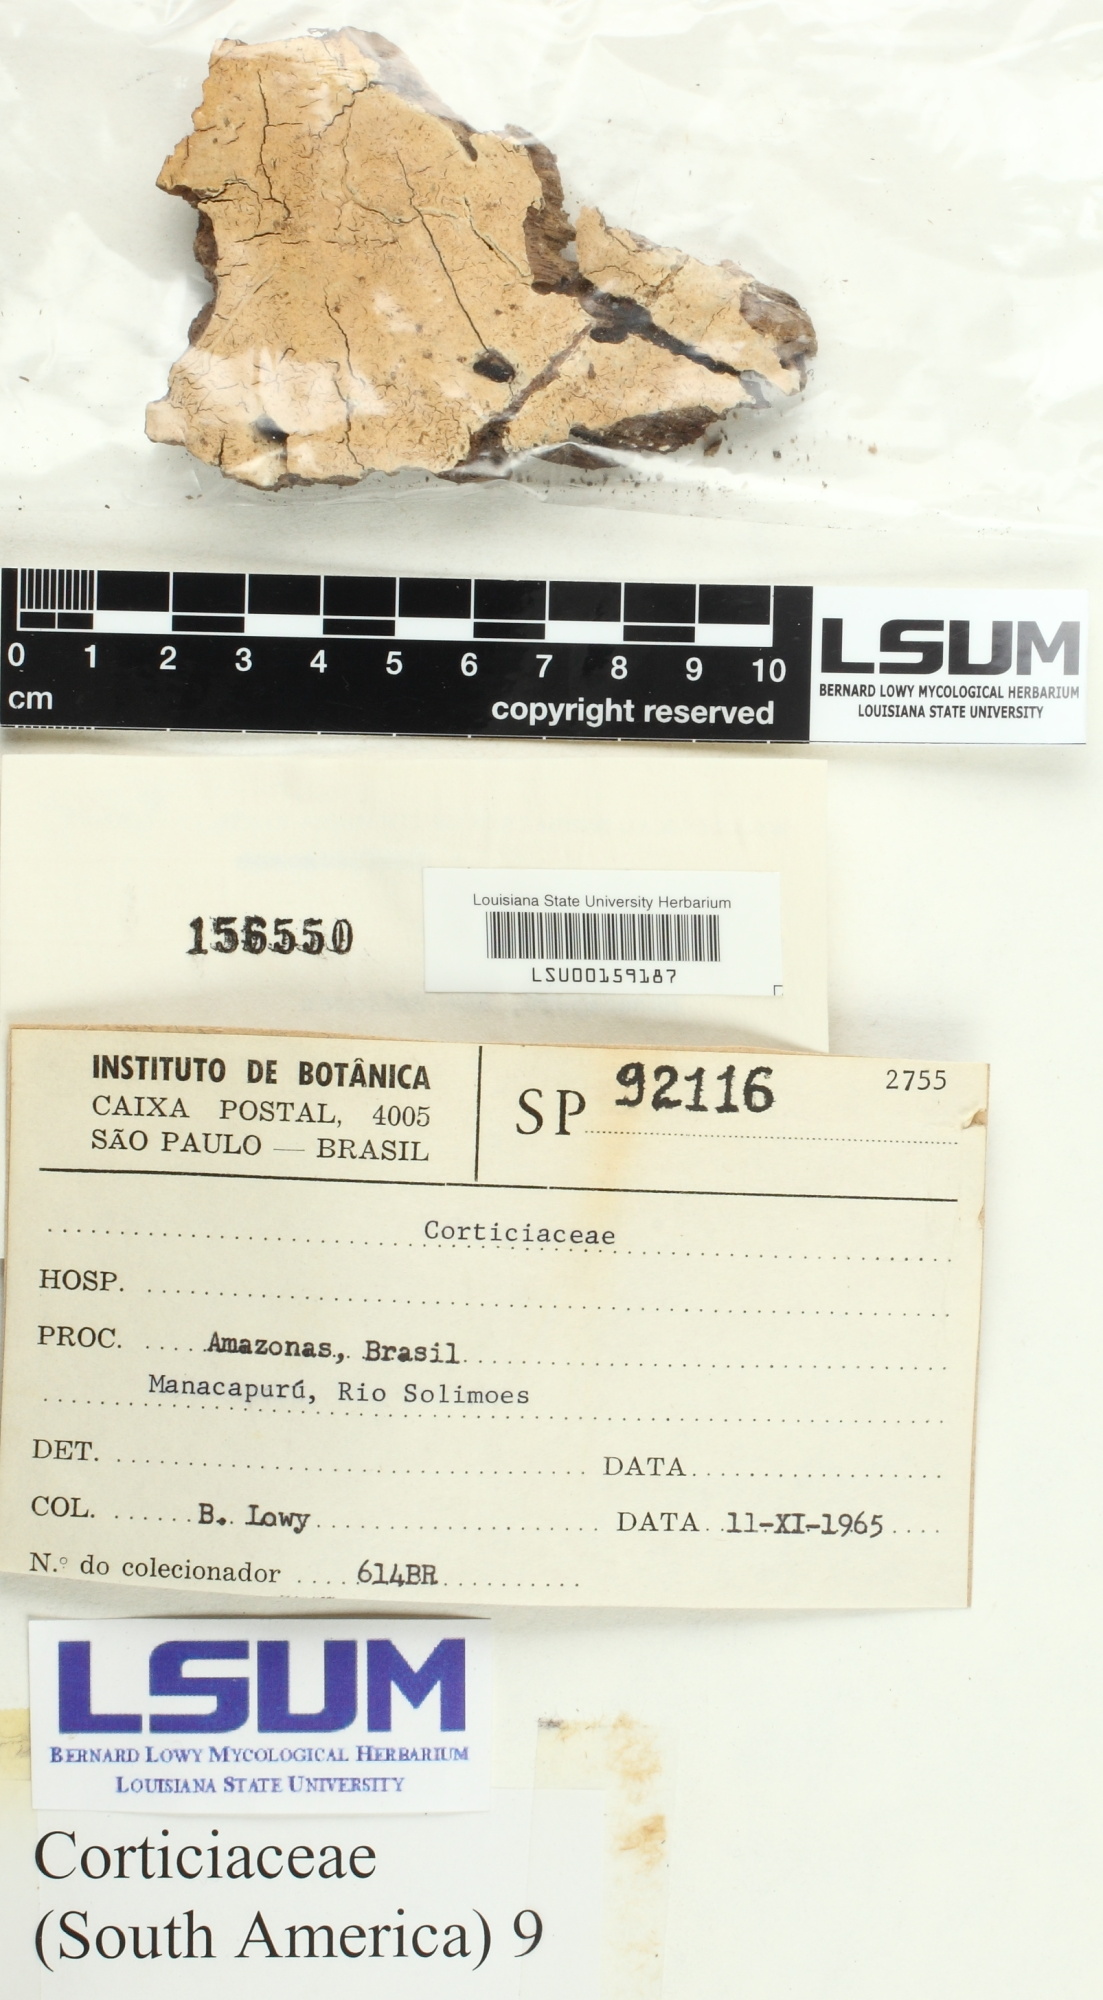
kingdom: Fungi
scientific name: Fungi
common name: Fungi
